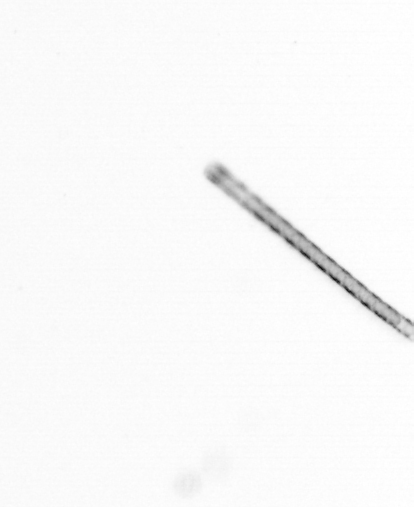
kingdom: Chromista
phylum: Ochrophyta
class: Bacillariophyceae
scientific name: Bacillariophyceae
